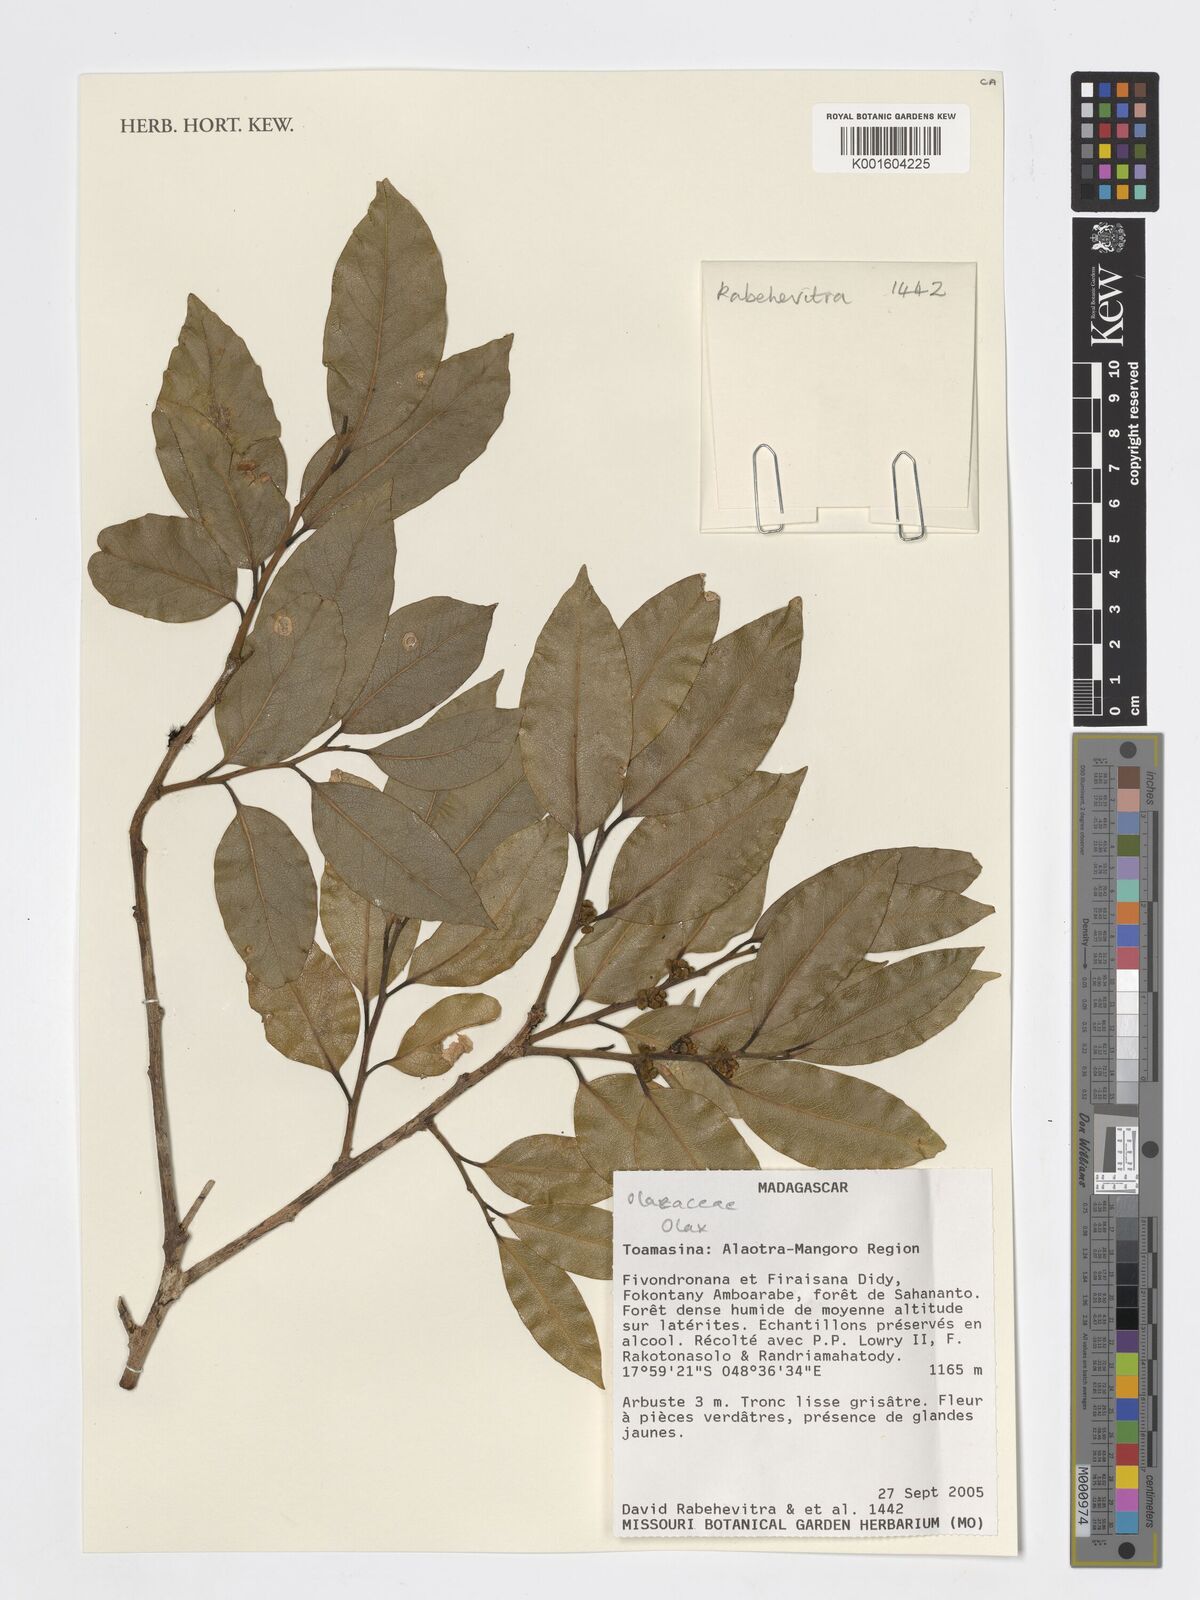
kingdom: Plantae
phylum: Tracheophyta
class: Magnoliopsida
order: Santalales
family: Olacaceae
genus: Olax
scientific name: Olax
